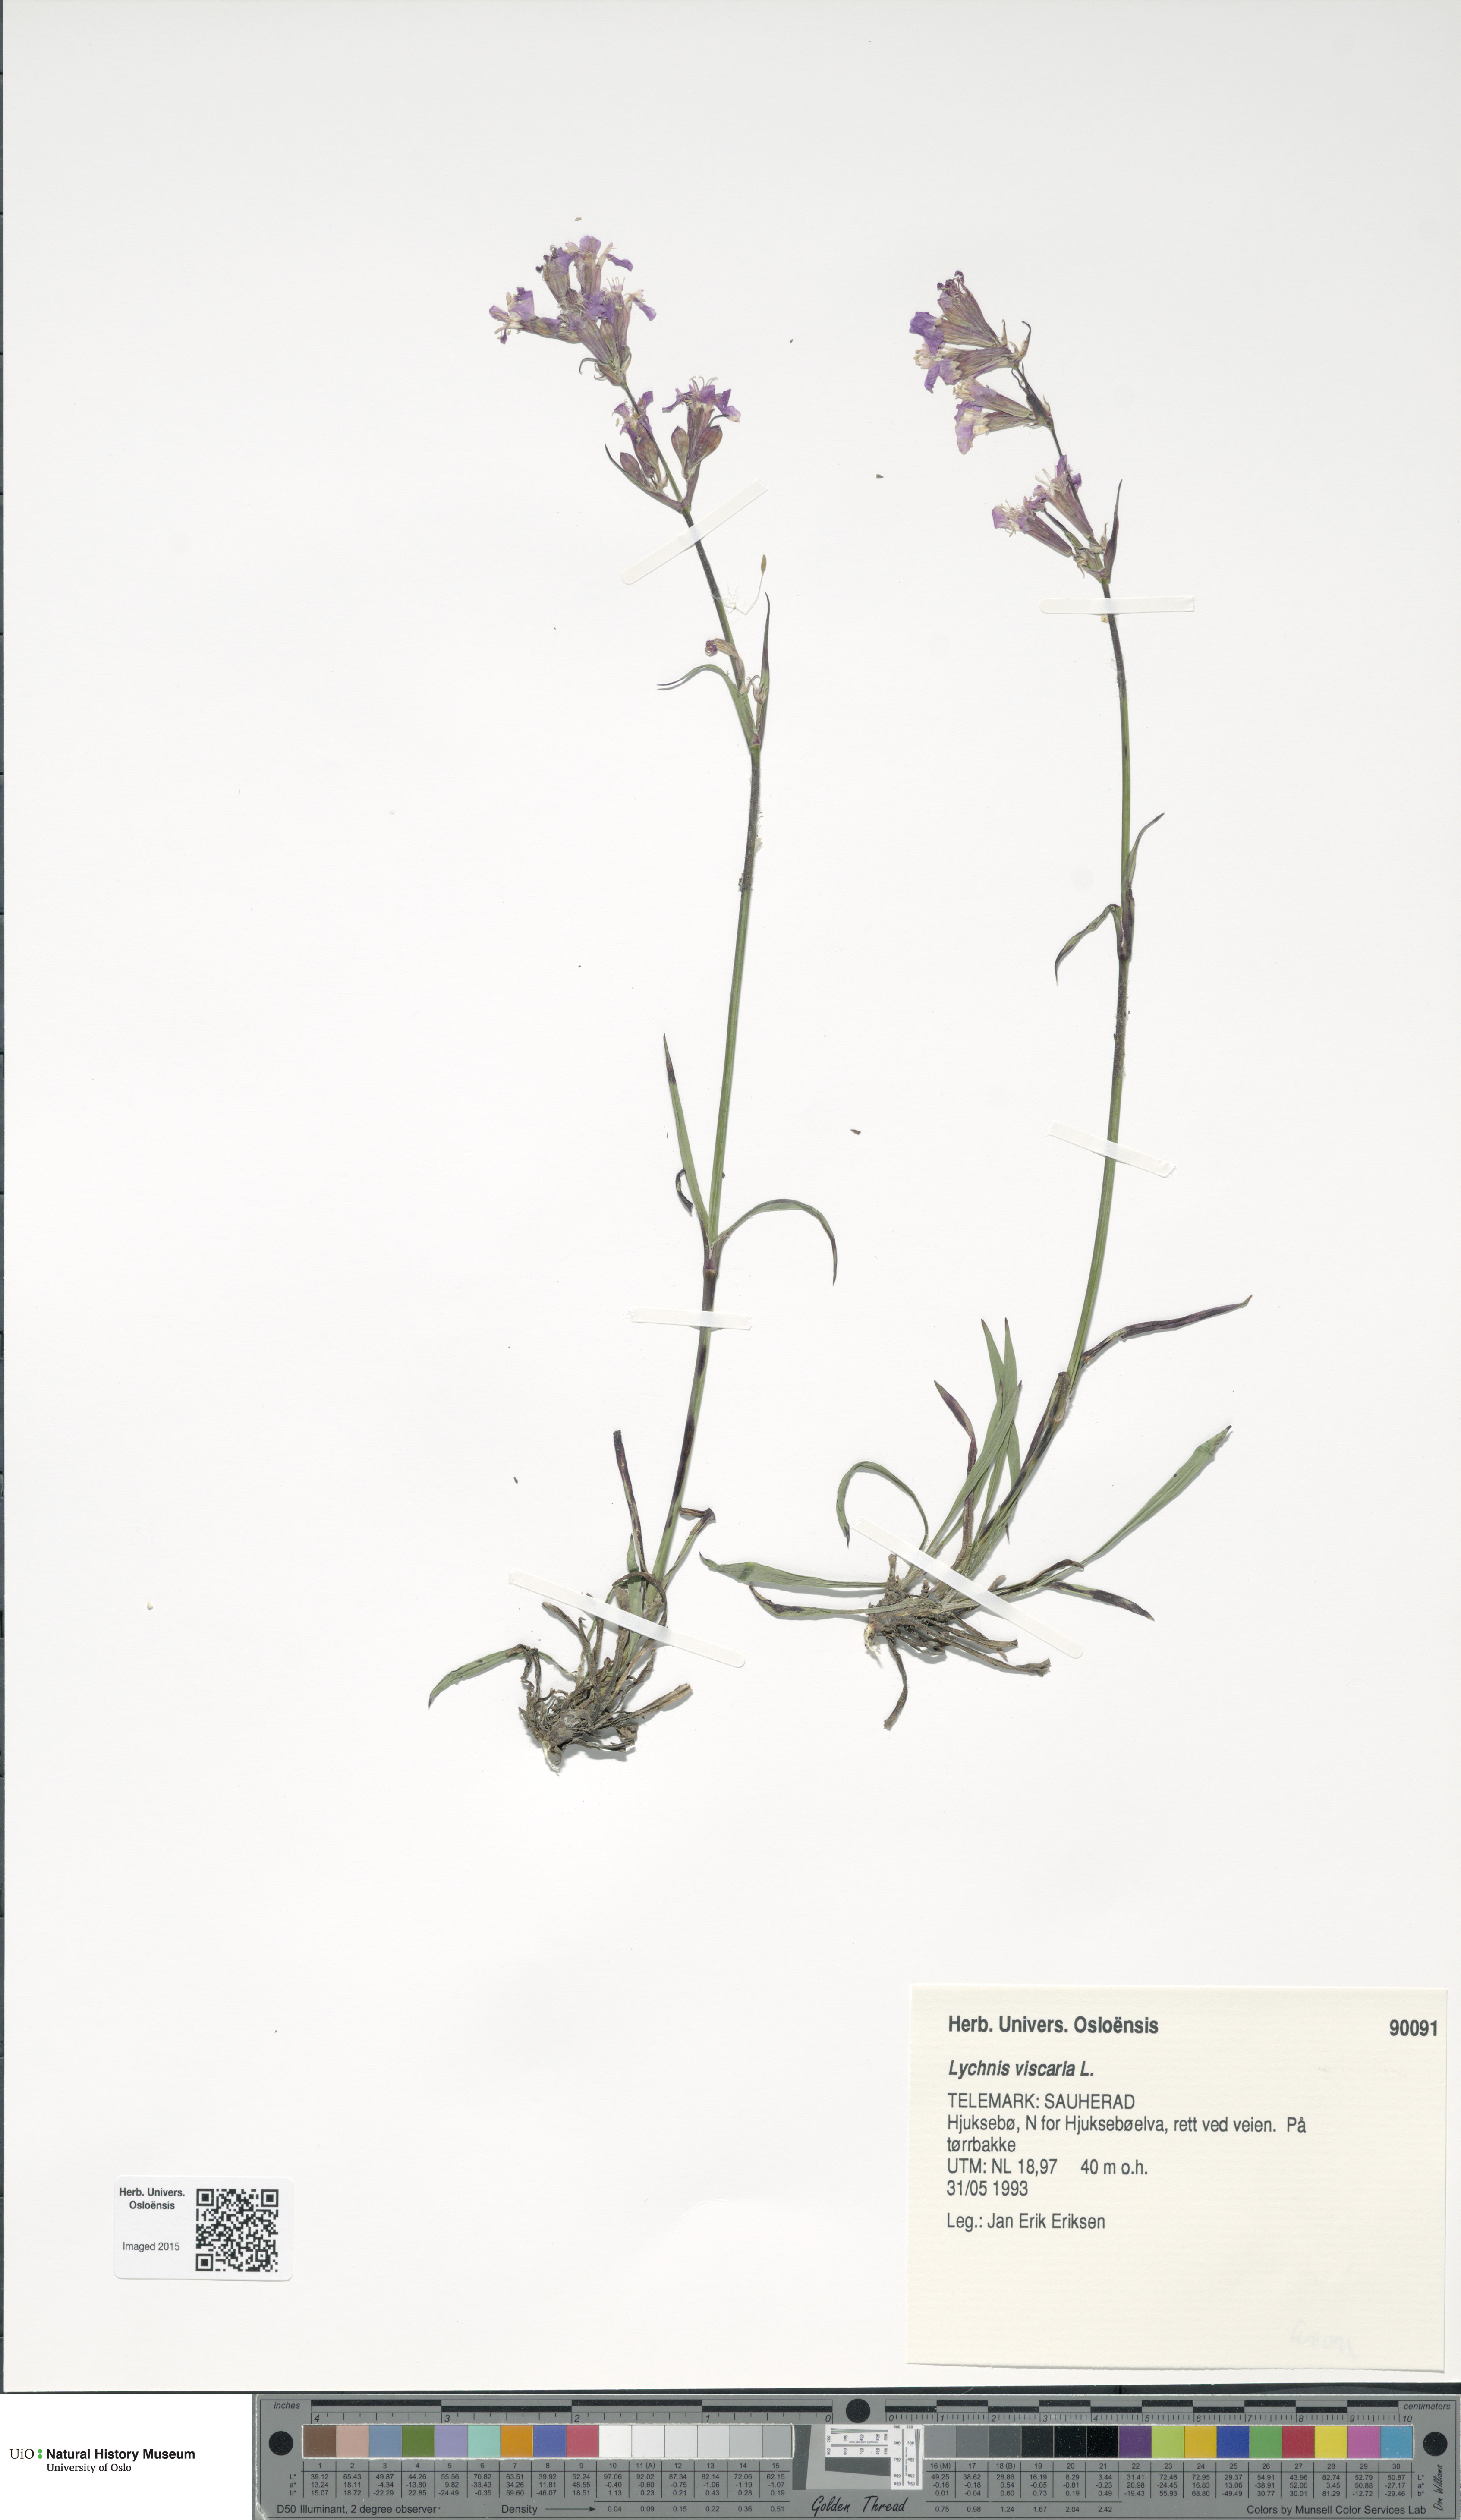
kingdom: Plantae
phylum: Tracheophyta
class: Magnoliopsida
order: Caryophyllales
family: Caryophyllaceae
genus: Viscaria
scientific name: Viscaria vulgaris
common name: Clammy campion
